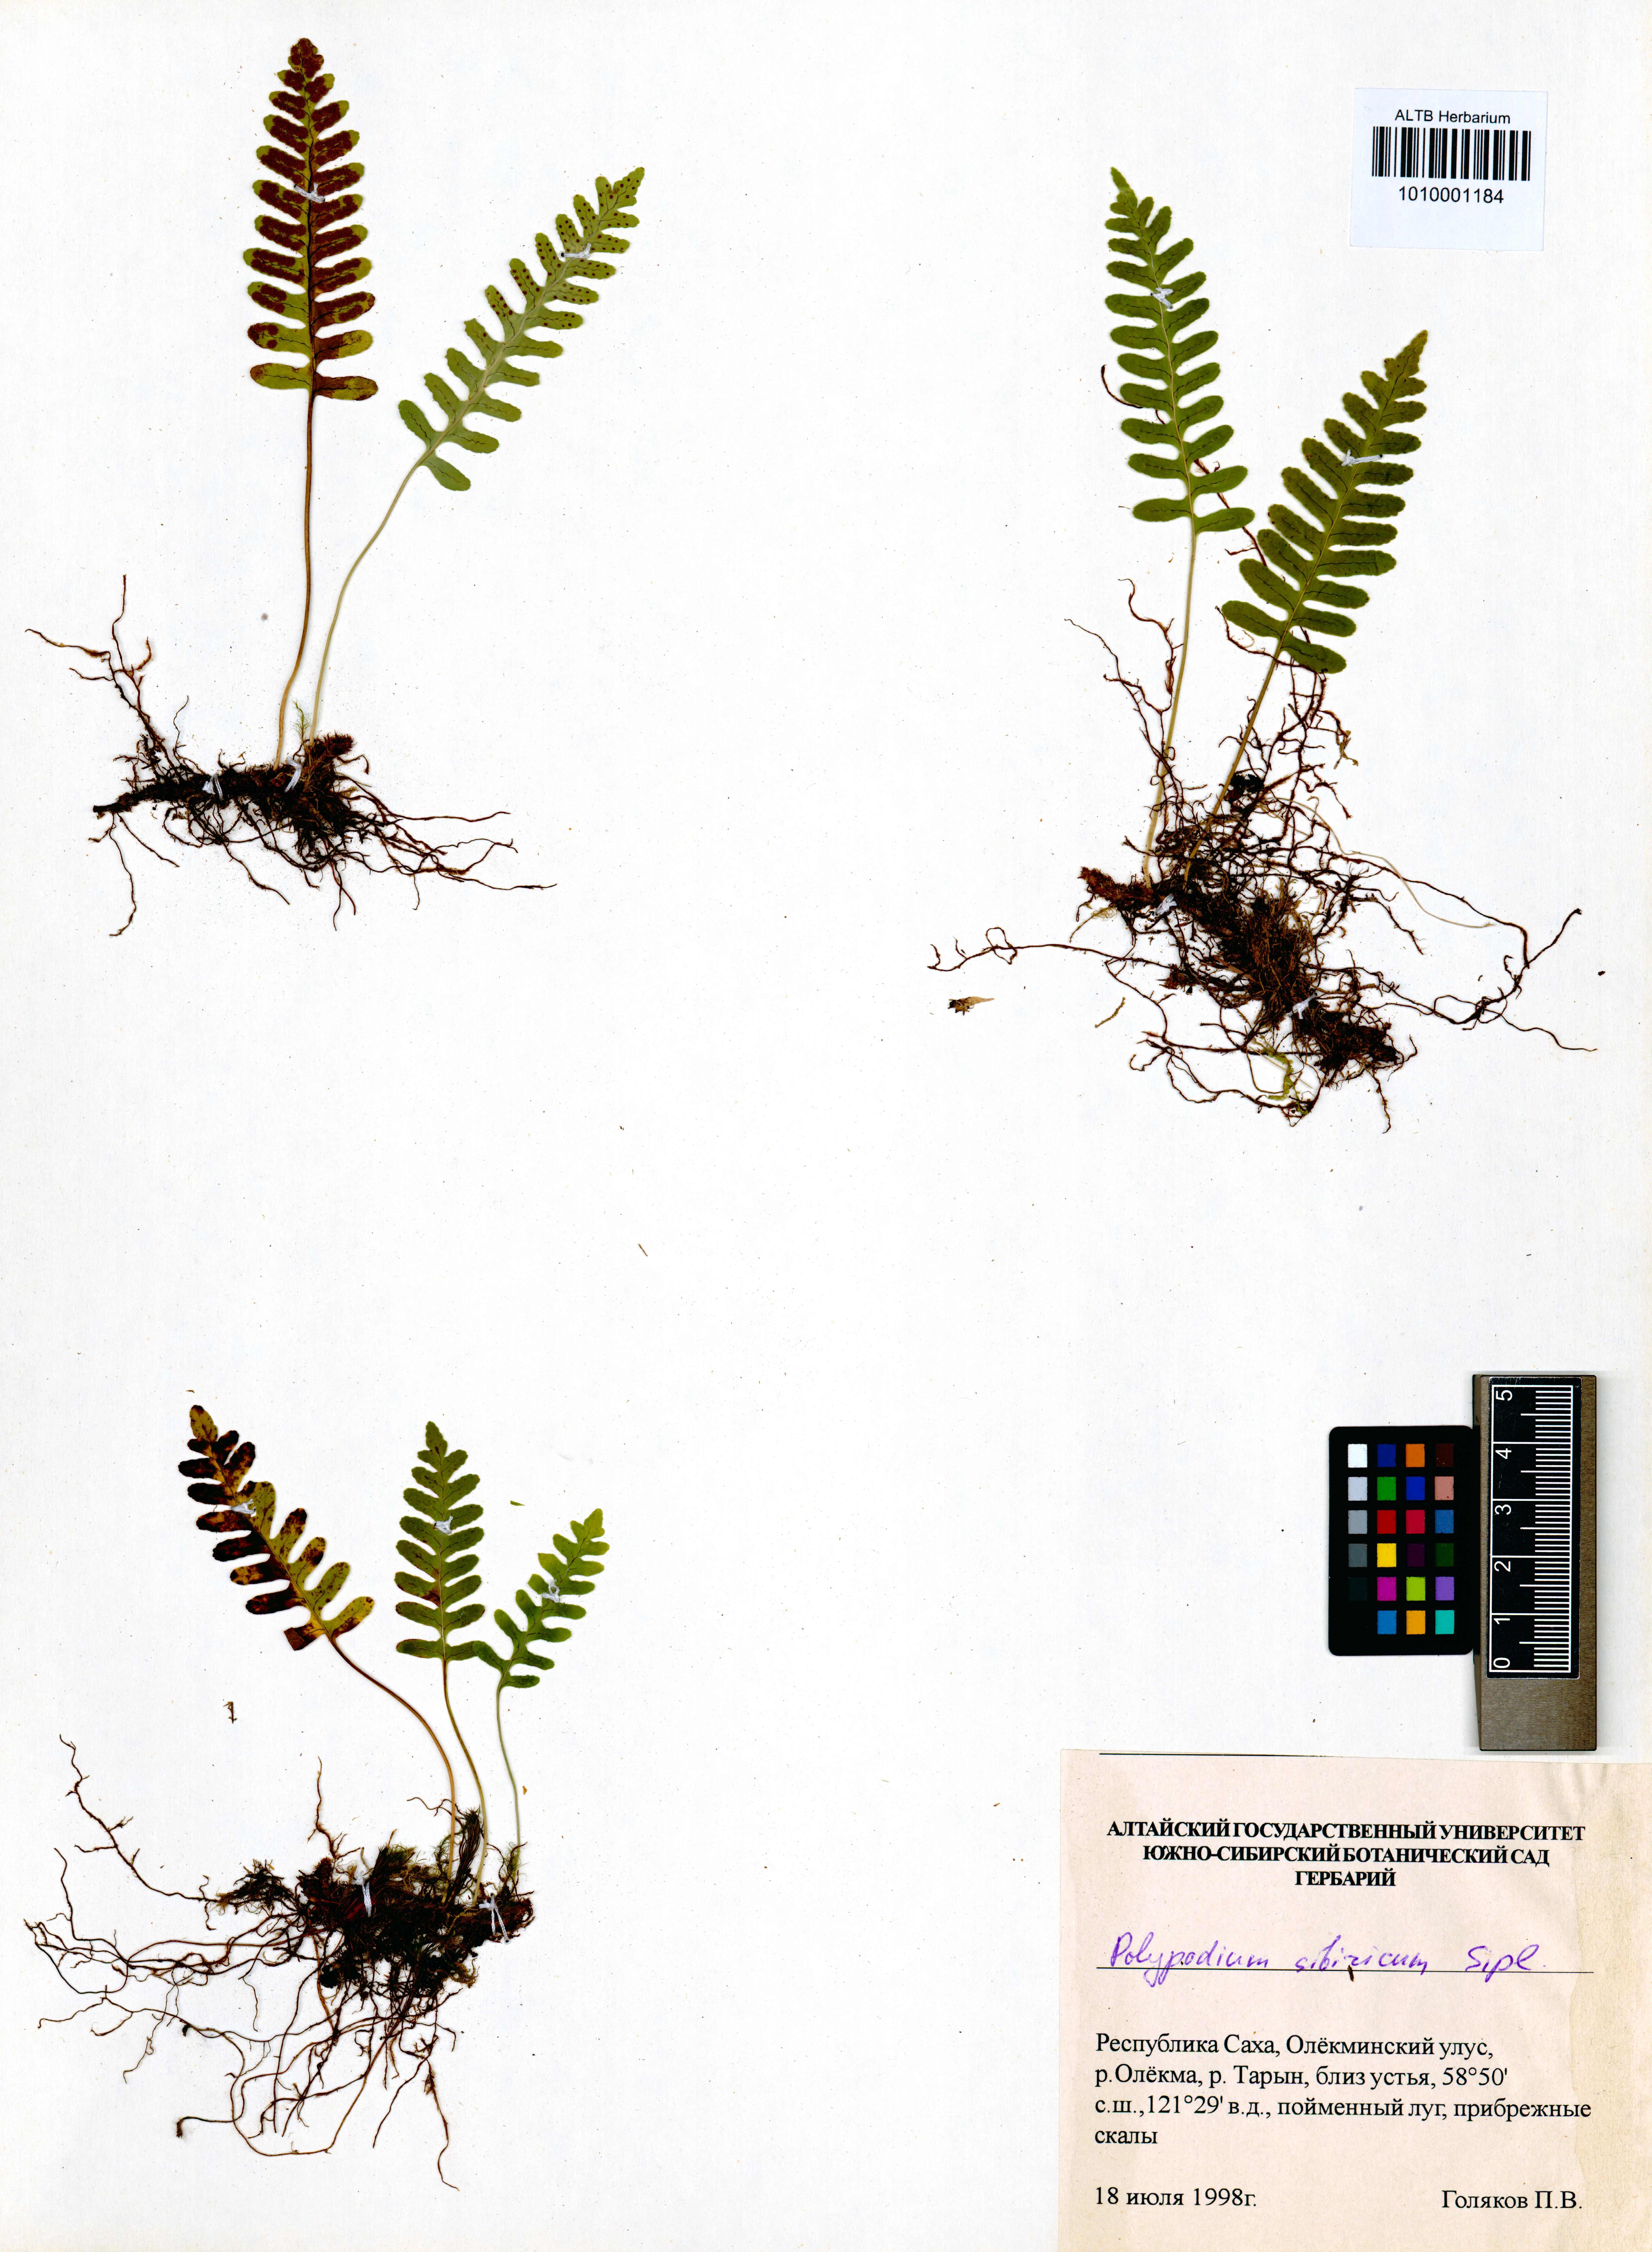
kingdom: Plantae
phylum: Tracheophyta
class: Polypodiopsida
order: Polypodiales
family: Polypodiaceae
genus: Polypodium
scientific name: Polypodium sibiricum
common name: Siberian polypody
